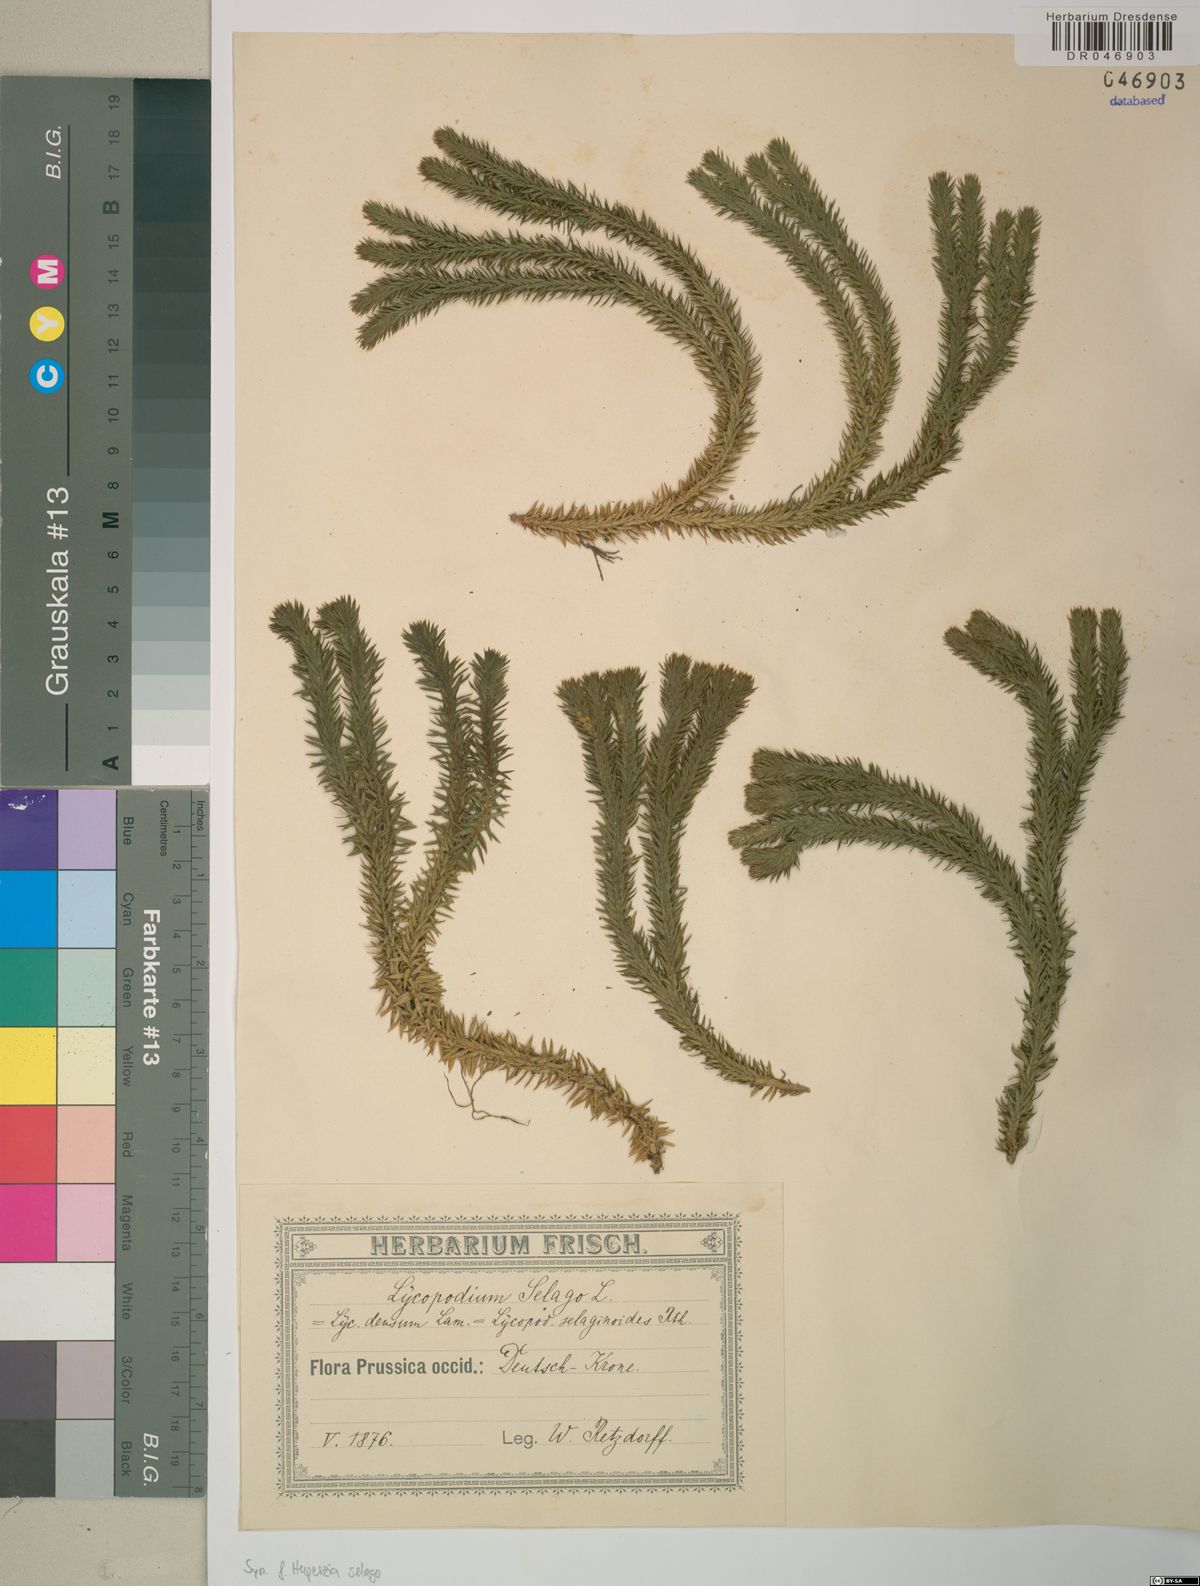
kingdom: Plantae
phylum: Tracheophyta
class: Lycopodiopsida
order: Lycopodiales
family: Lycopodiaceae
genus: Huperzia
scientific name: Huperzia selago
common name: Northern firmoss
